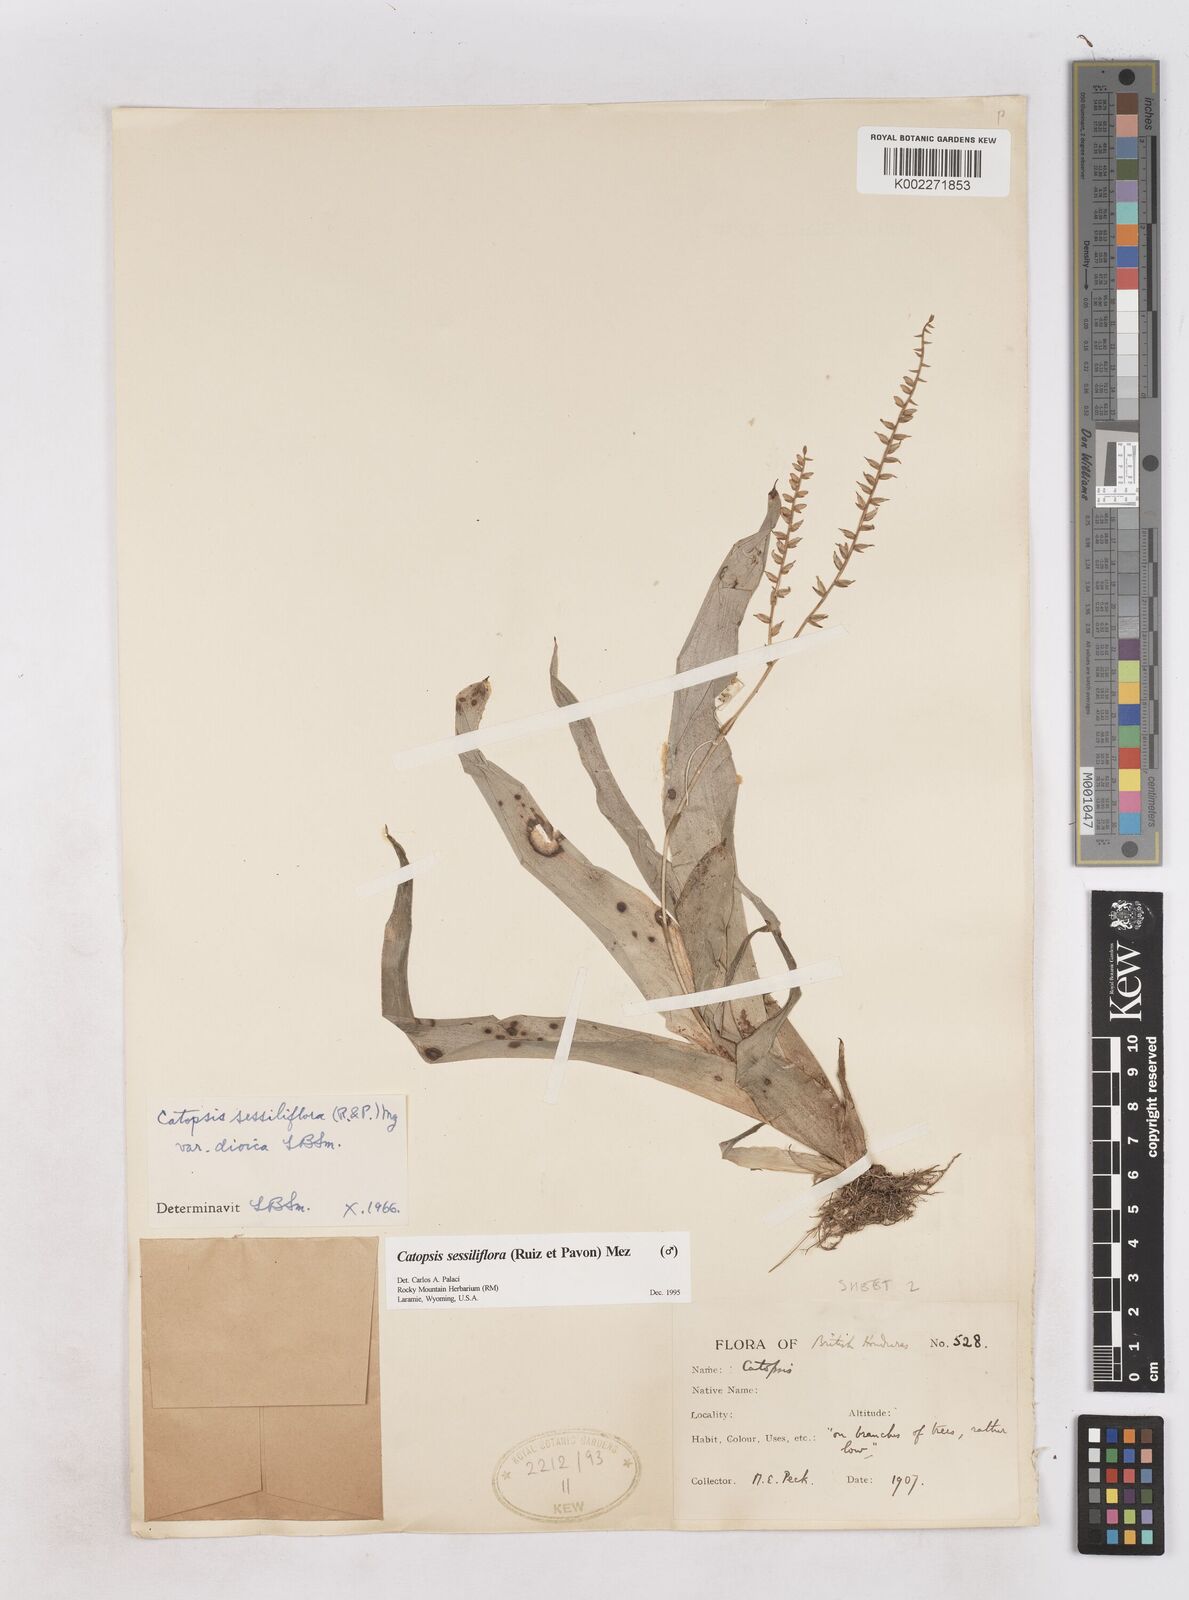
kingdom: Plantae
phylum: Tracheophyta
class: Liliopsida
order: Poales
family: Bromeliaceae
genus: Catopsis
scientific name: Catopsis sessiliflora
